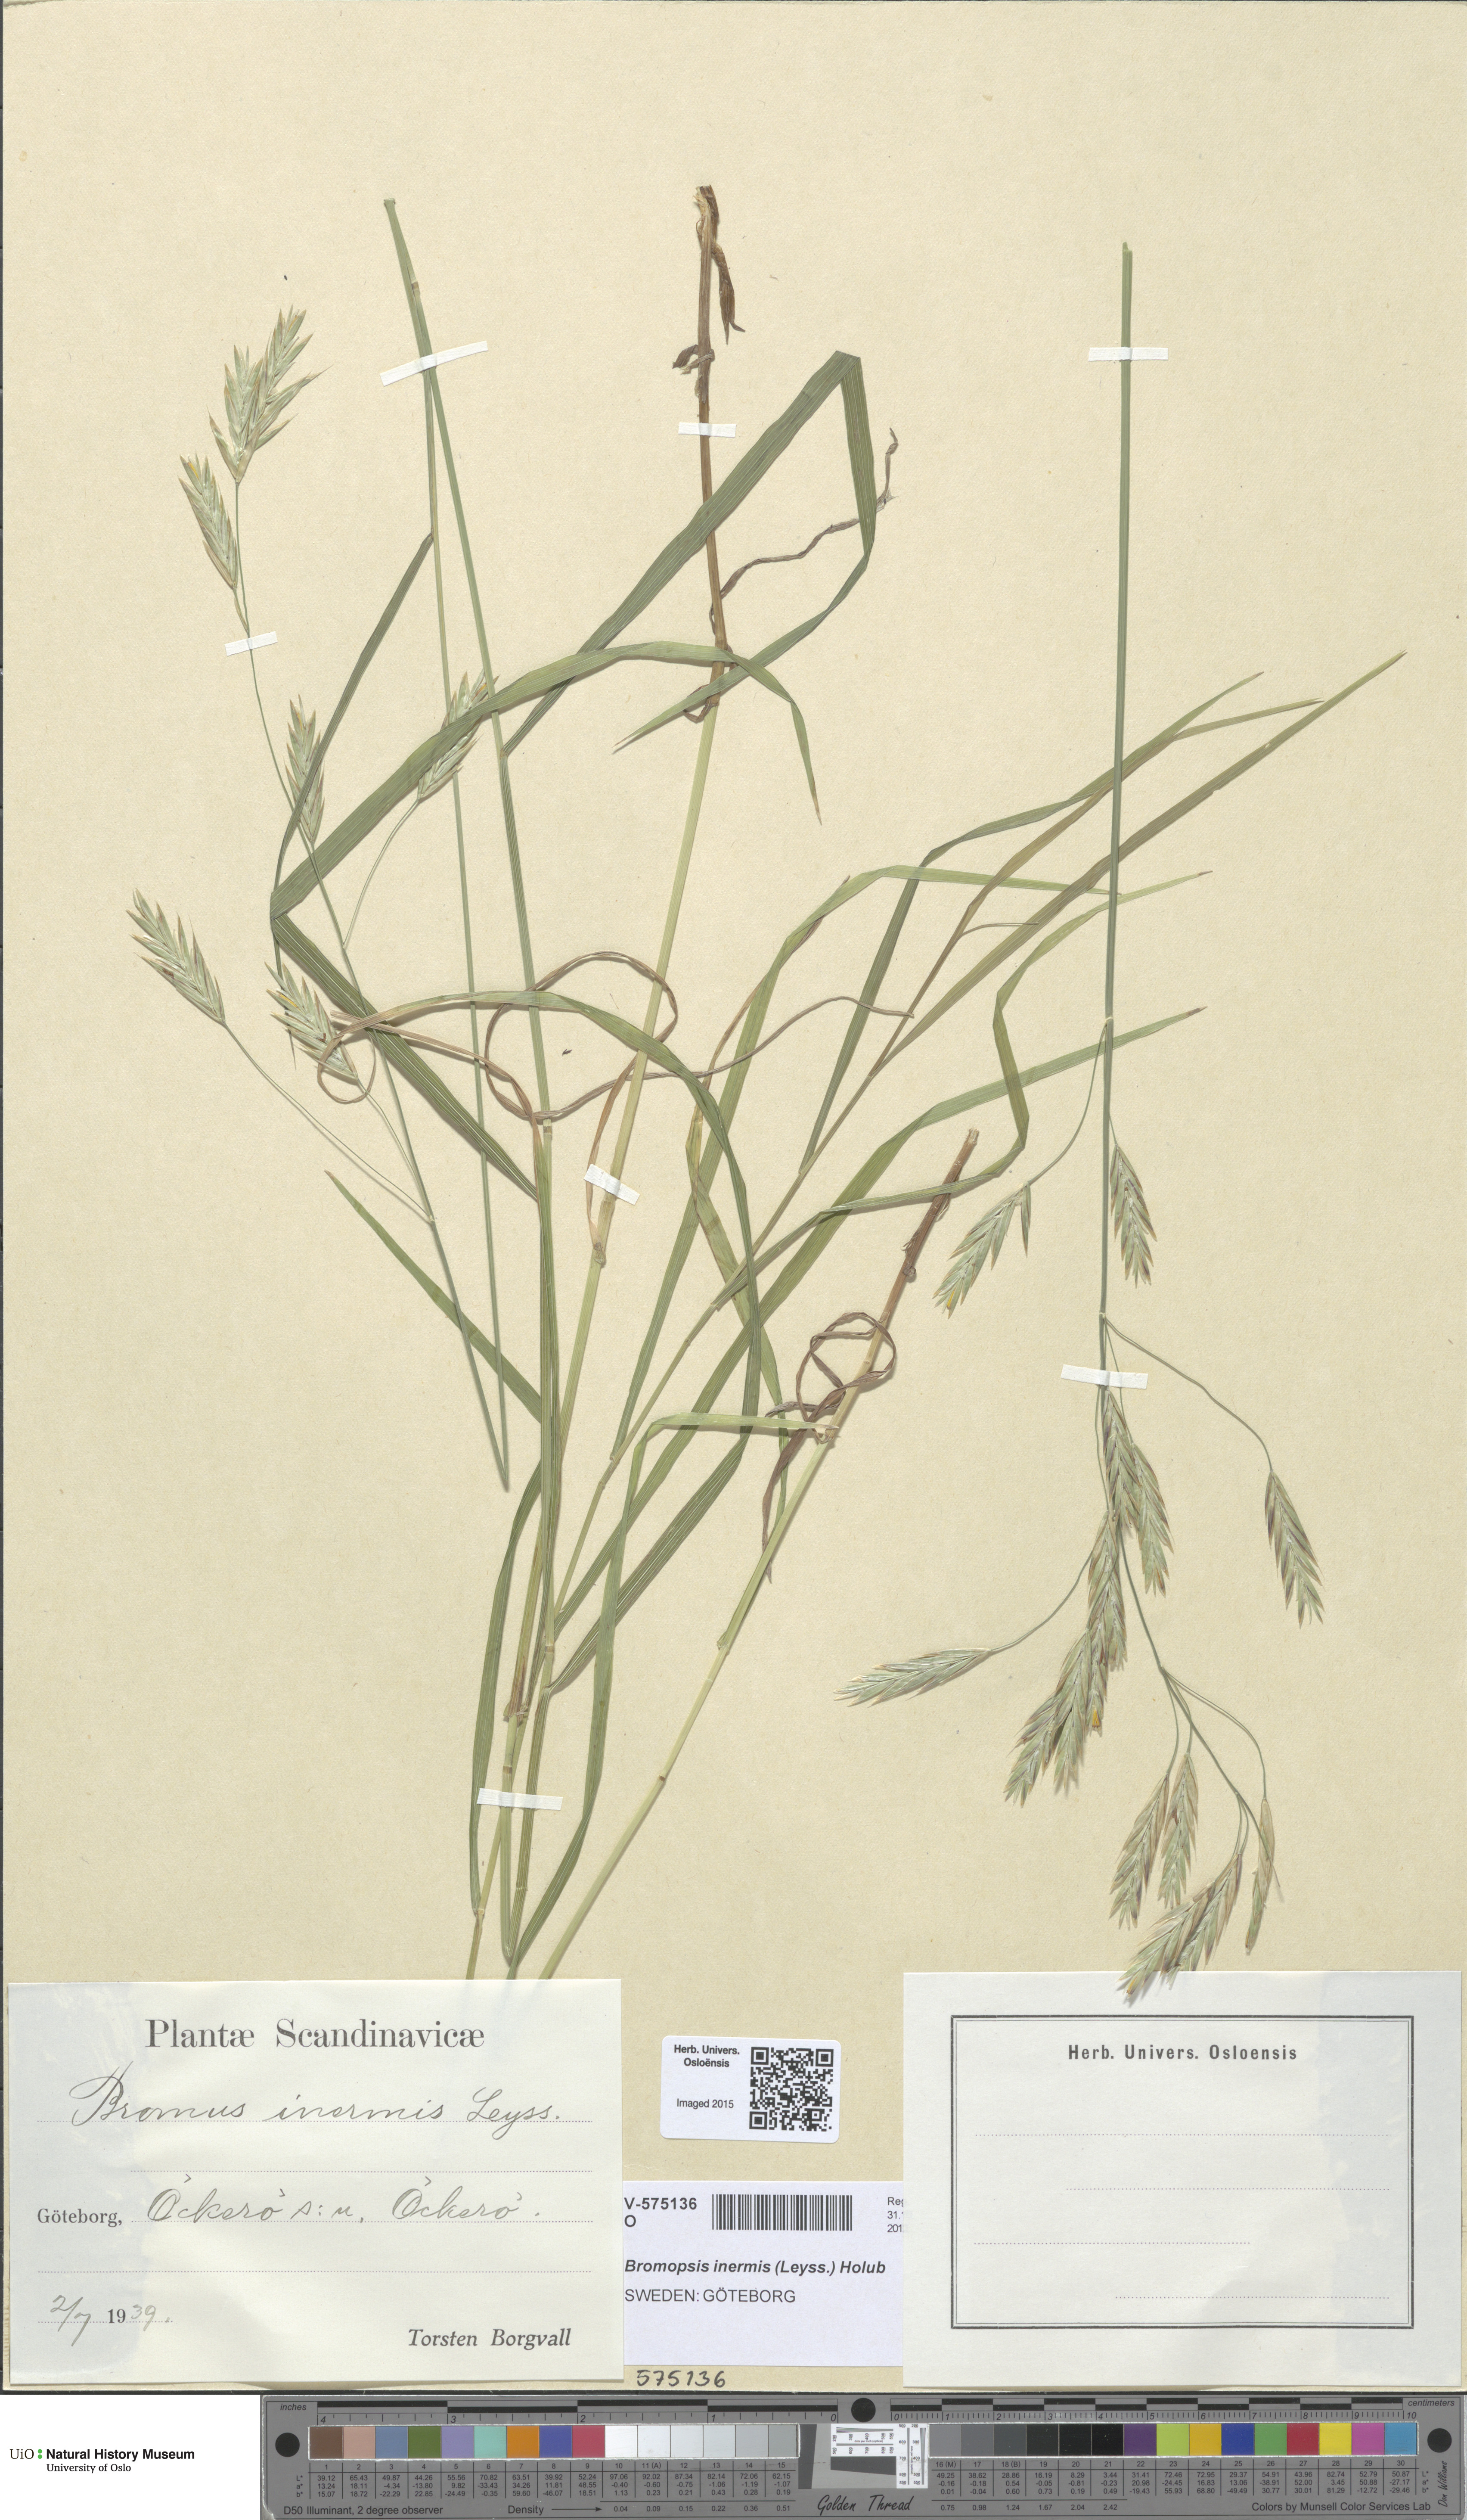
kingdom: Plantae
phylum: Tracheophyta
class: Liliopsida
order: Poales
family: Poaceae
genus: Bromus
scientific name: Bromus inermis
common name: Smooth brome
